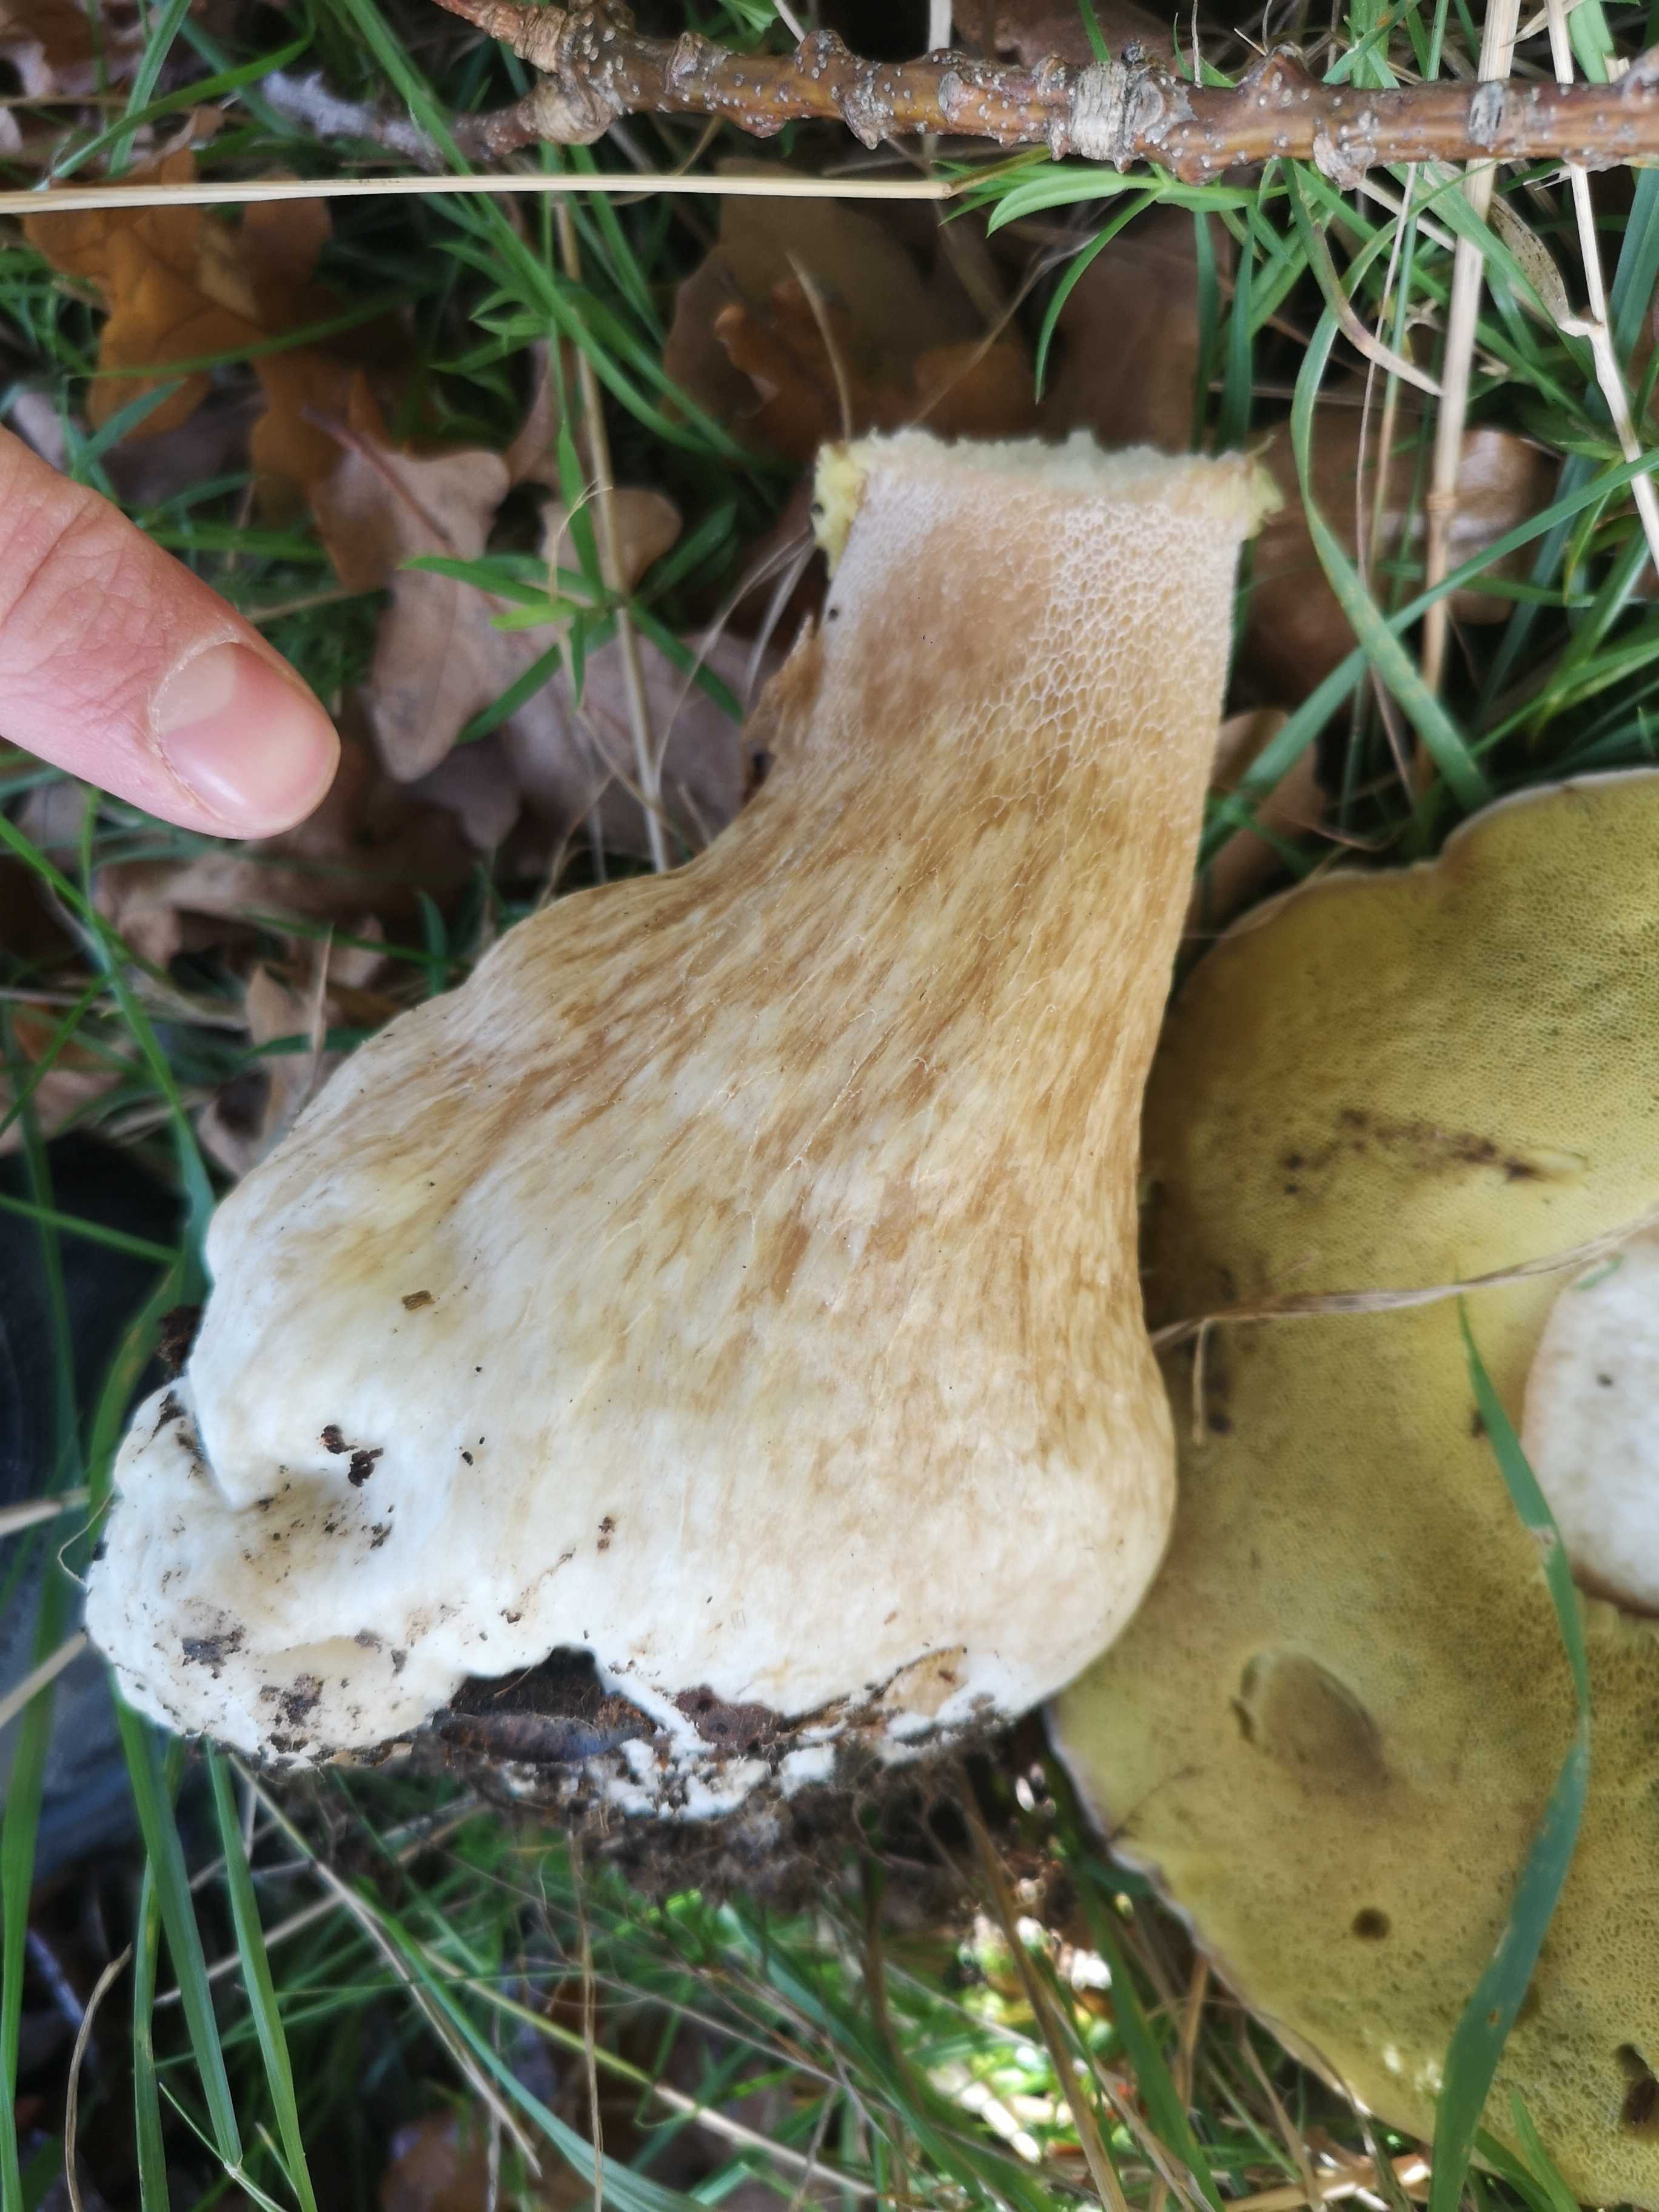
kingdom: Fungi
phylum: Basidiomycota
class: Agaricomycetes
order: Boletales
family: Boletaceae
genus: Boletus
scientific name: Boletus edulis
